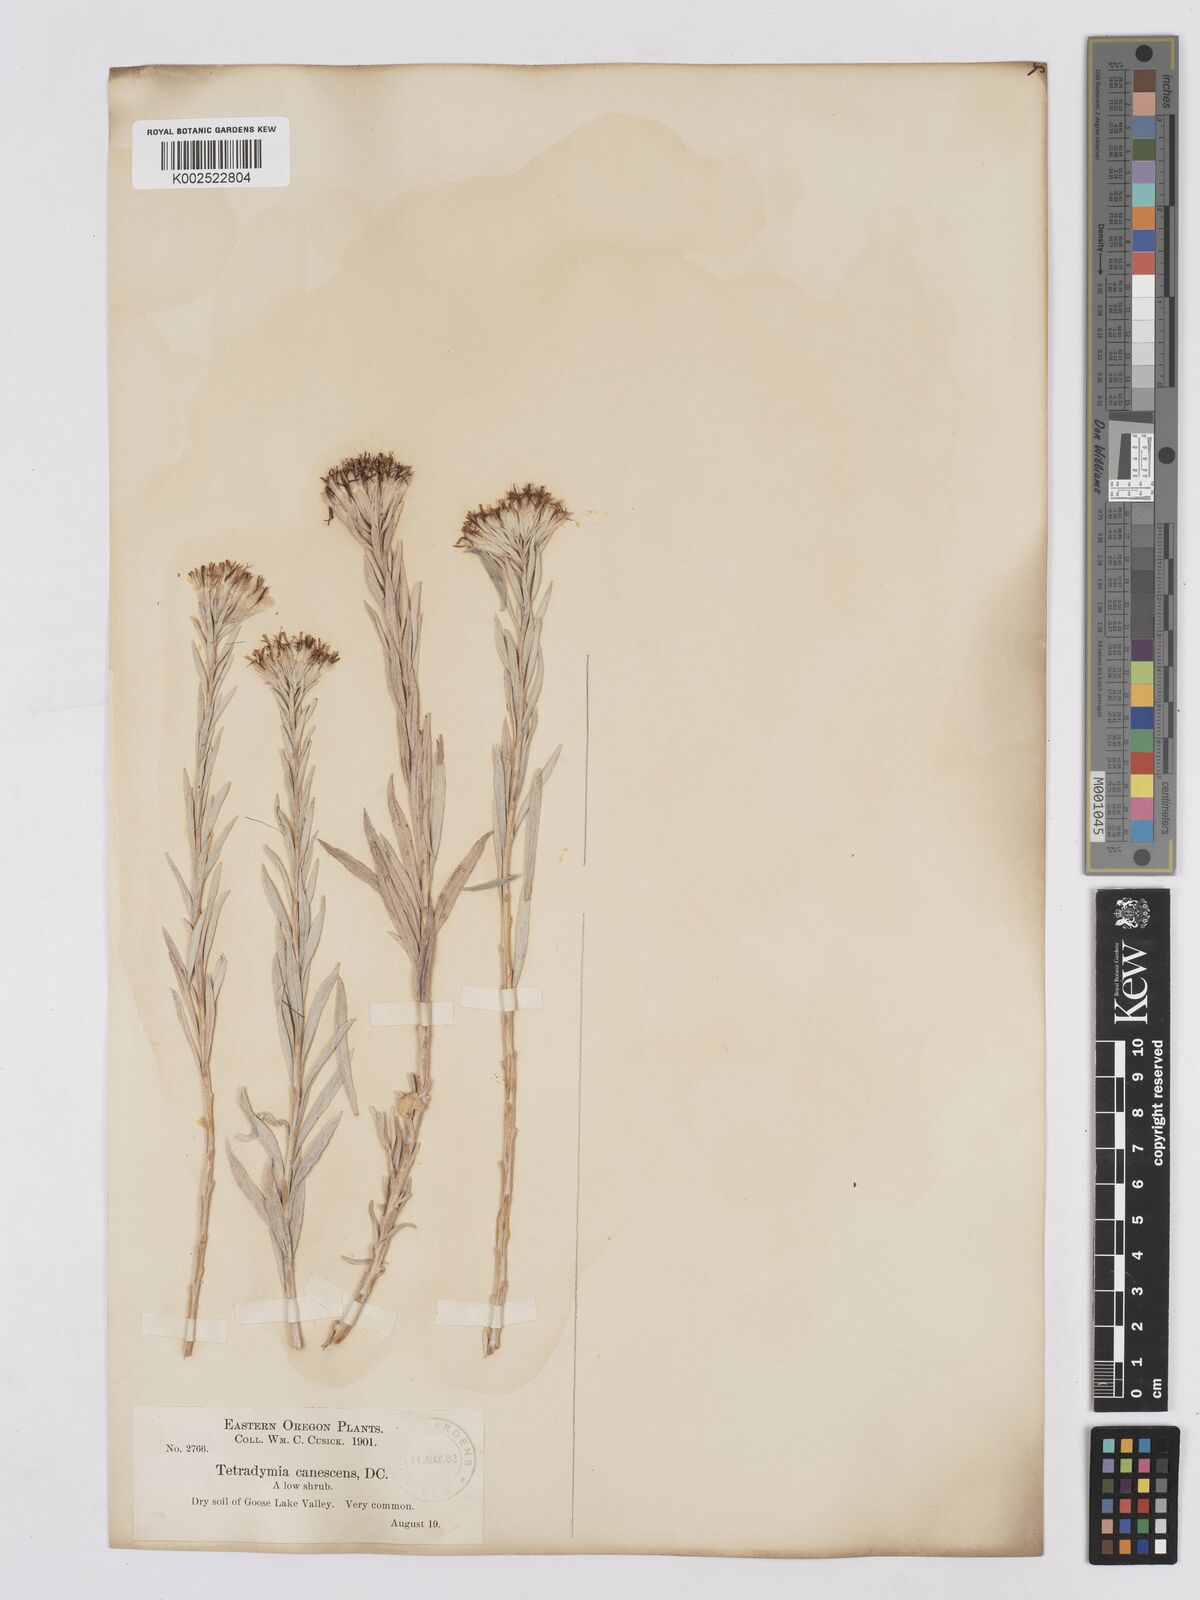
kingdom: Plantae
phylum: Tracheophyta
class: Magnoliopsida
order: Asterales
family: Asteraceae
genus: Tetradymia
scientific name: Tetradymia canescens
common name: Spineless horsebrush
